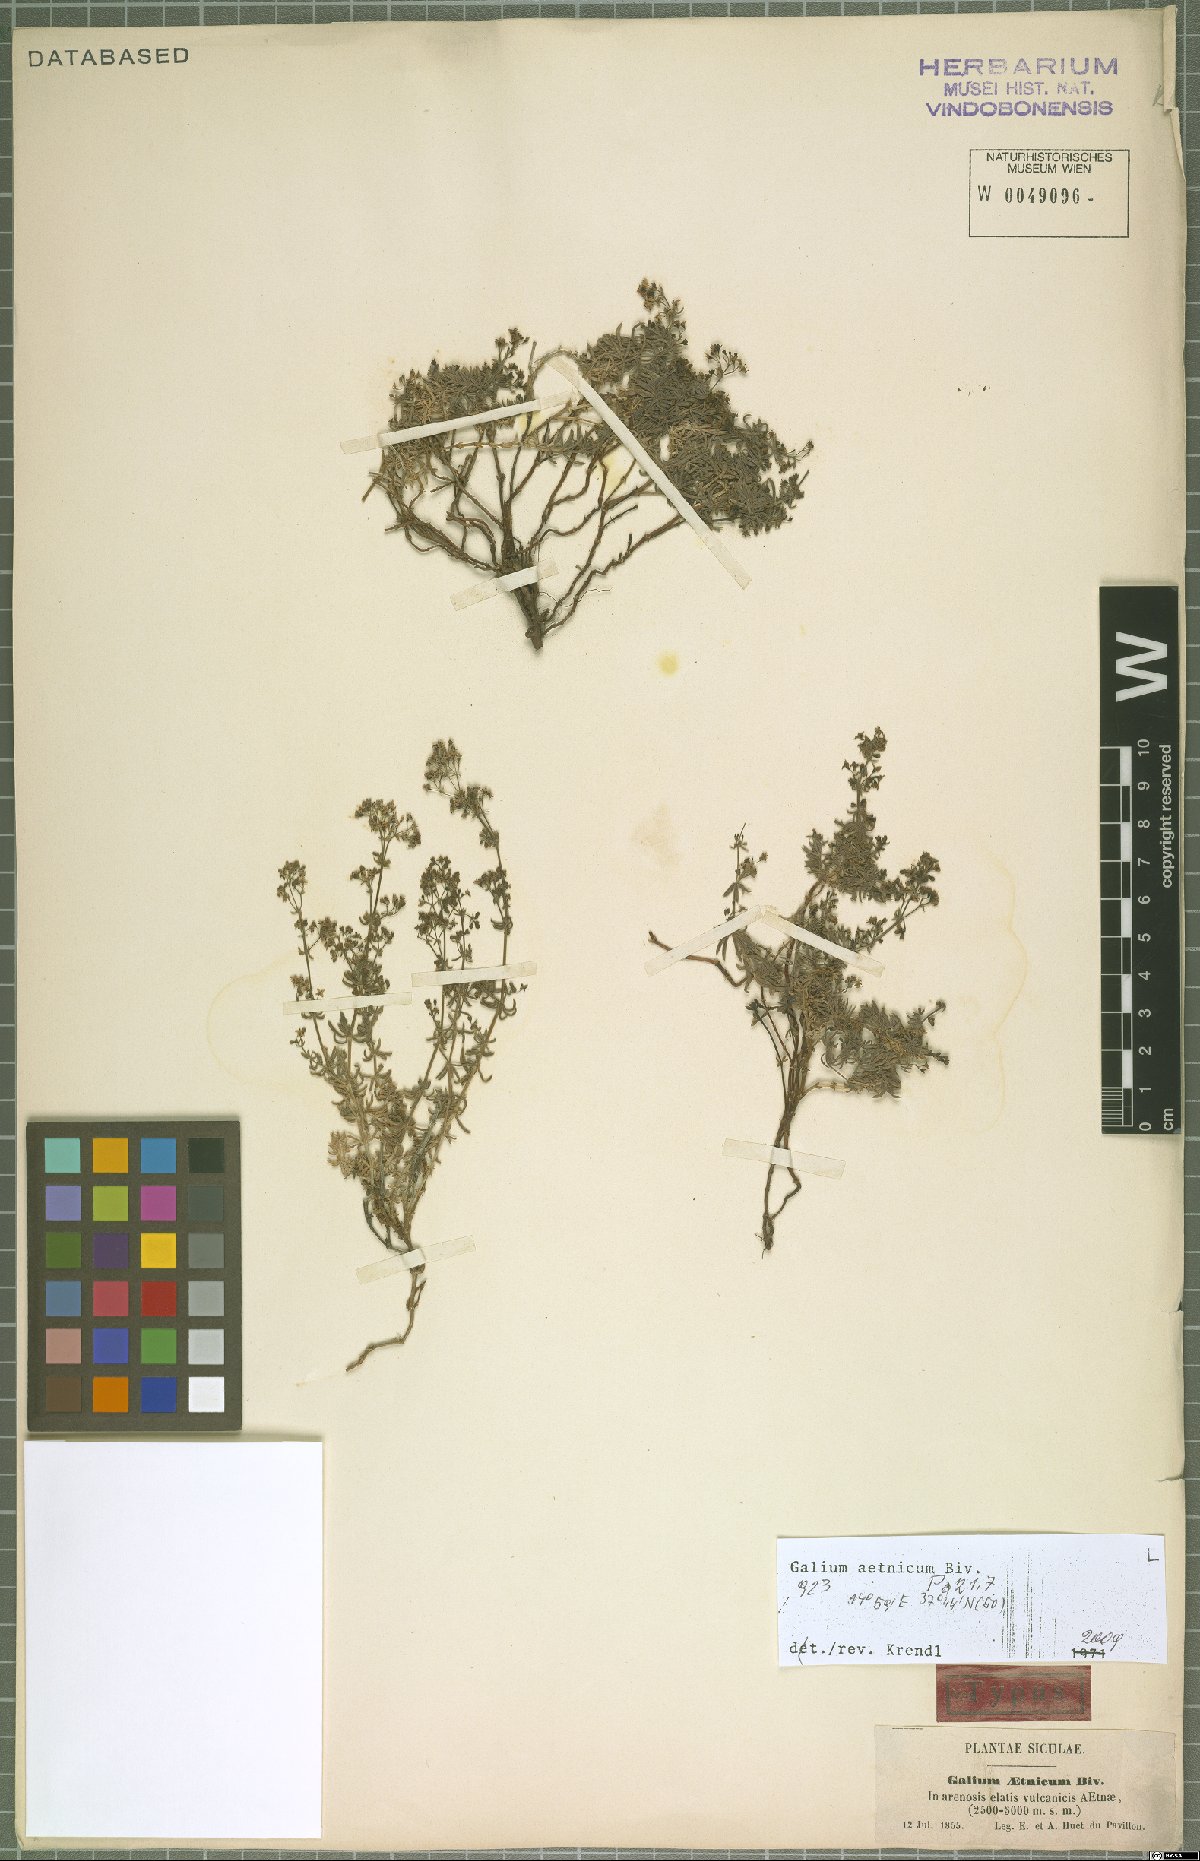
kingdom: Plantae
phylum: Tracheophyta
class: Magnoliopsida
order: Gentianales
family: Rubiaceae
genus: Galium
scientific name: Galium aetnicum
